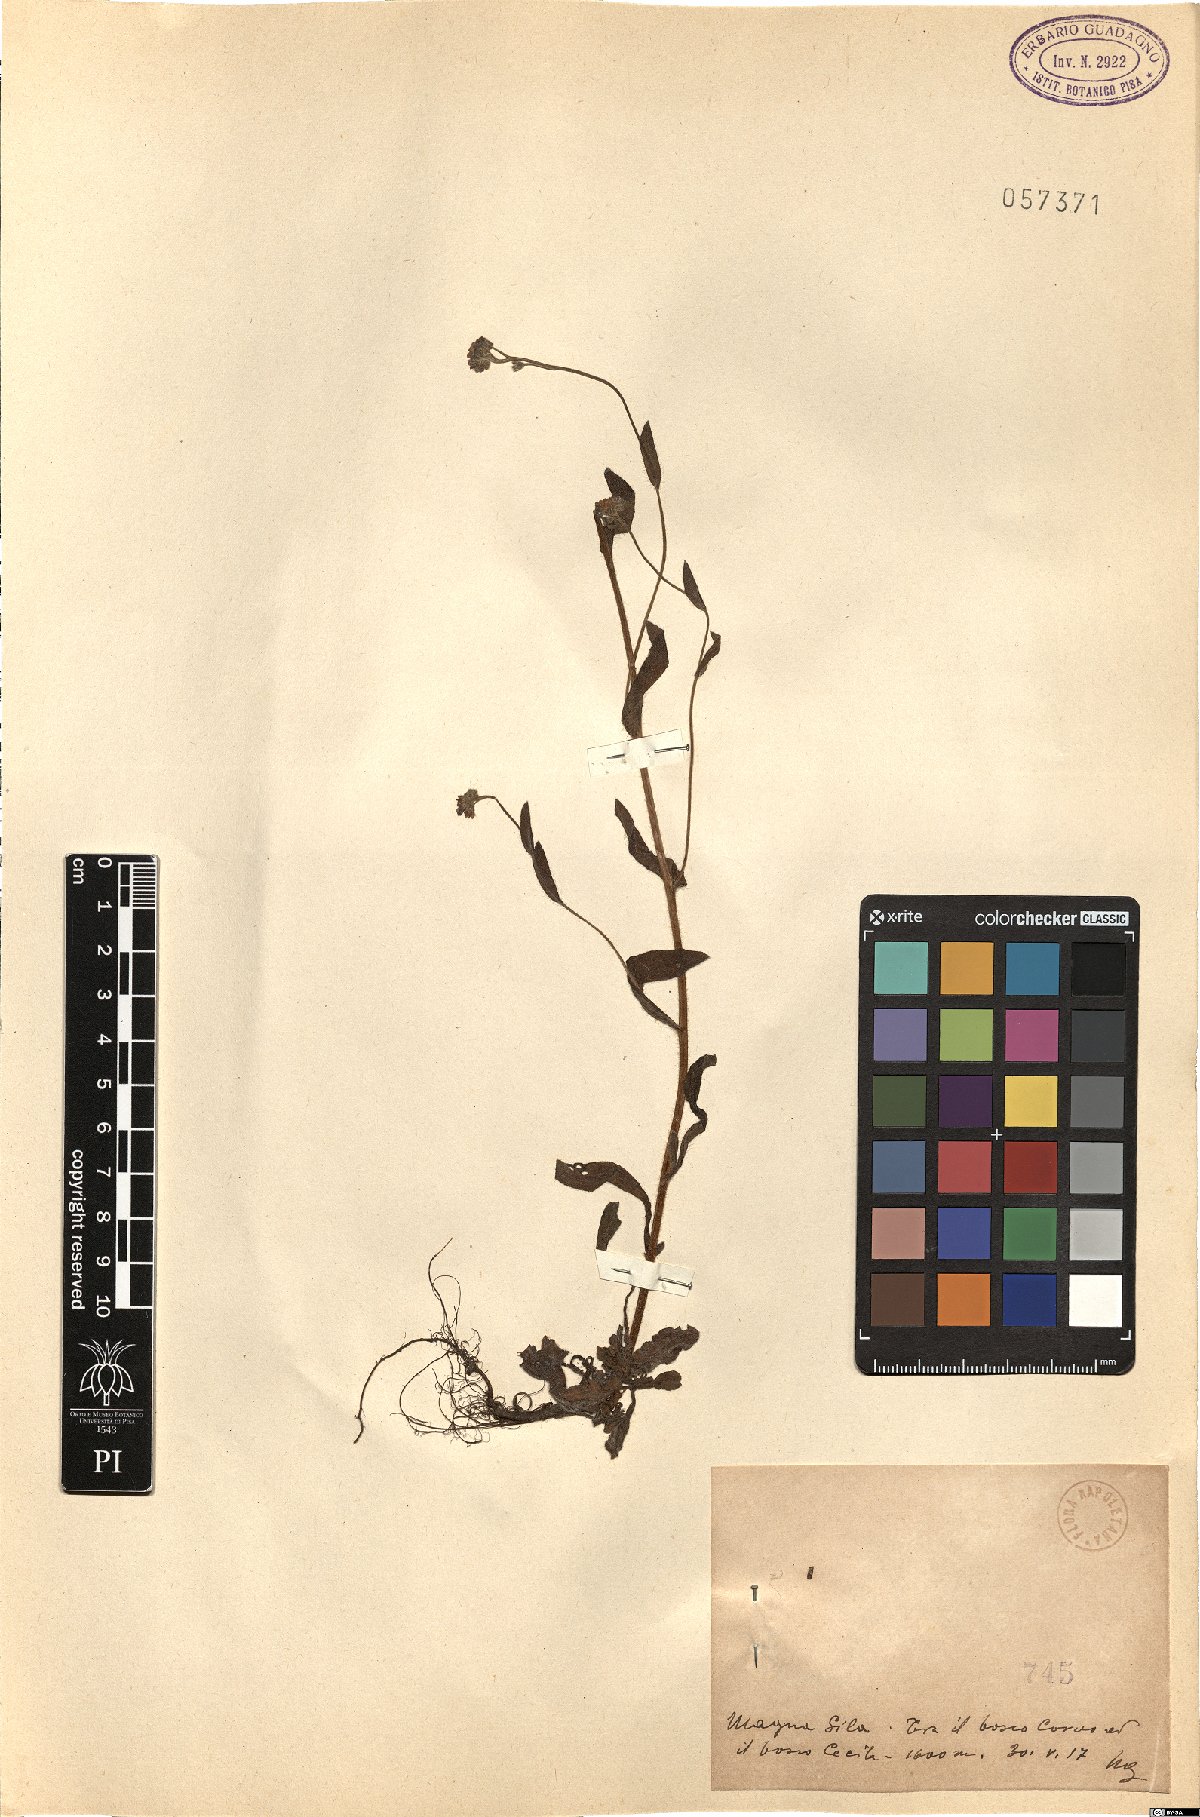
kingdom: Plantae
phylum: Tracheophyta
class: Magnoliopsida
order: Boraginales
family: Boraginaceae
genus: Myosotis
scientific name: Myosotis
